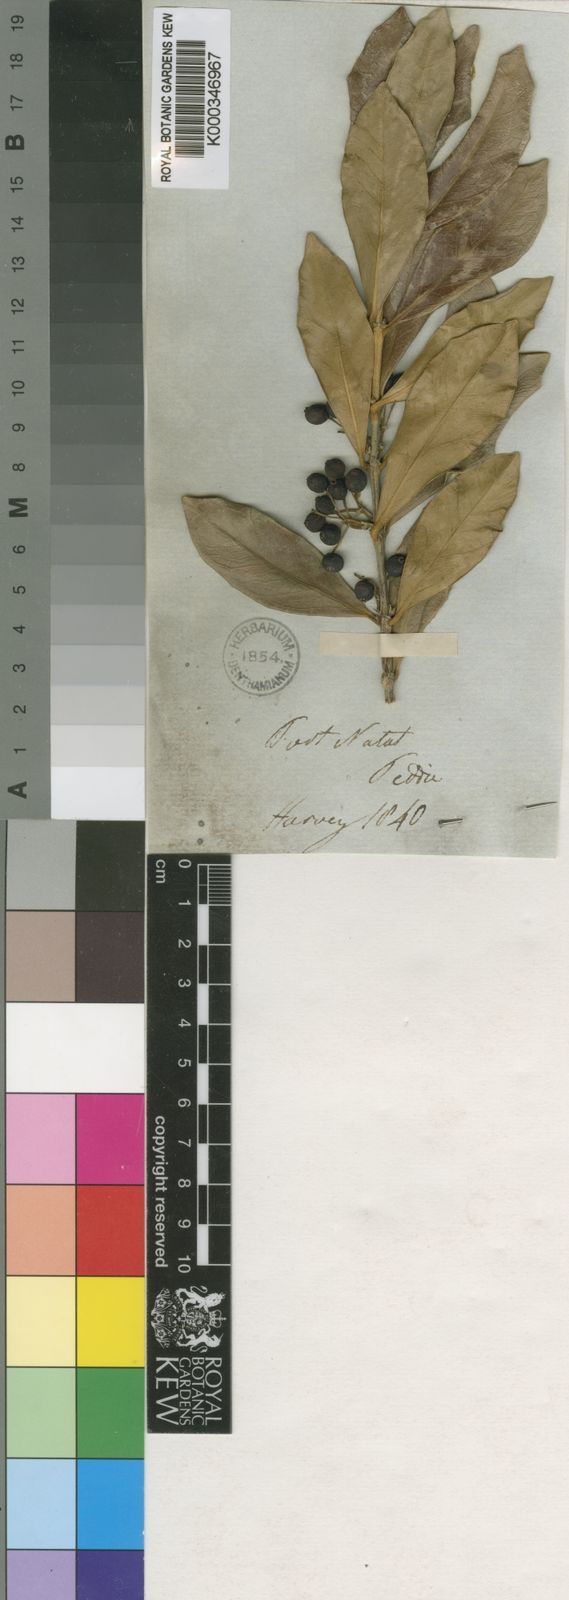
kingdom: Plantae
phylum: Tracheophyta
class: Magnoliopsida
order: Gentianales
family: Rubiaceae
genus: Empogona
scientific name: Empogona coriacea
